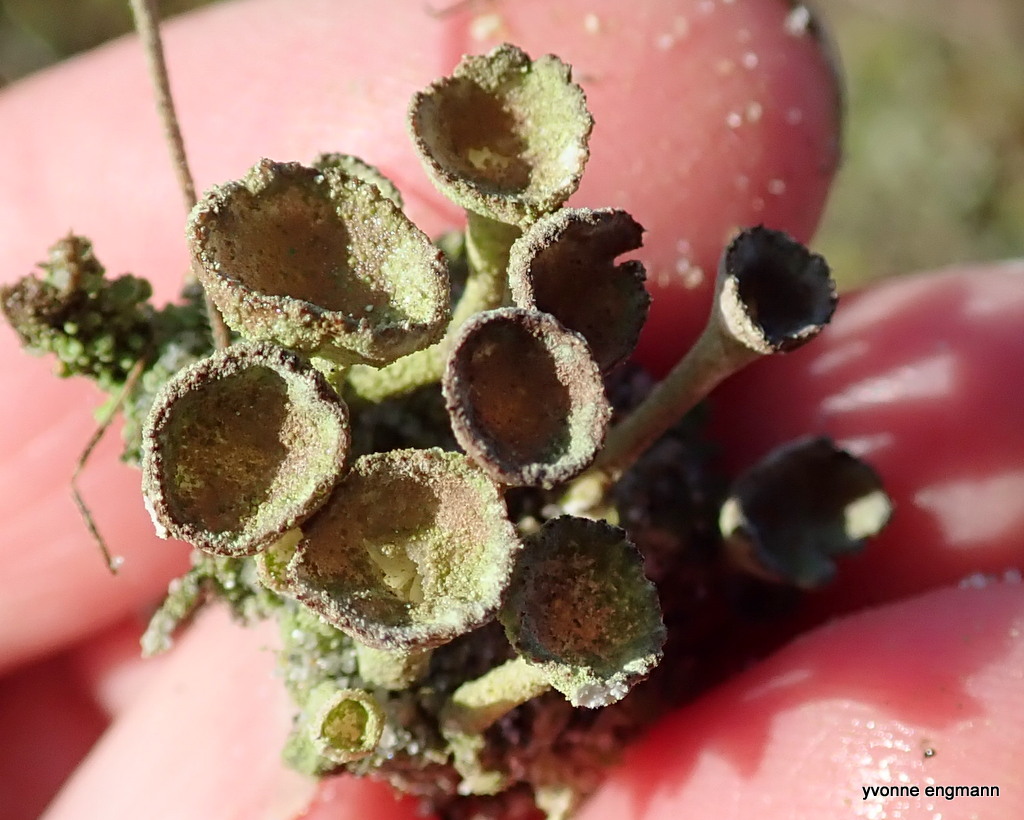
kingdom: Fungi
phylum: Ascomycota
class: Lecanoromycetes
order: Lecanorales
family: Cladoniaceae
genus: Cladonia
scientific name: Cladonia humilis
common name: lav bægerlav
